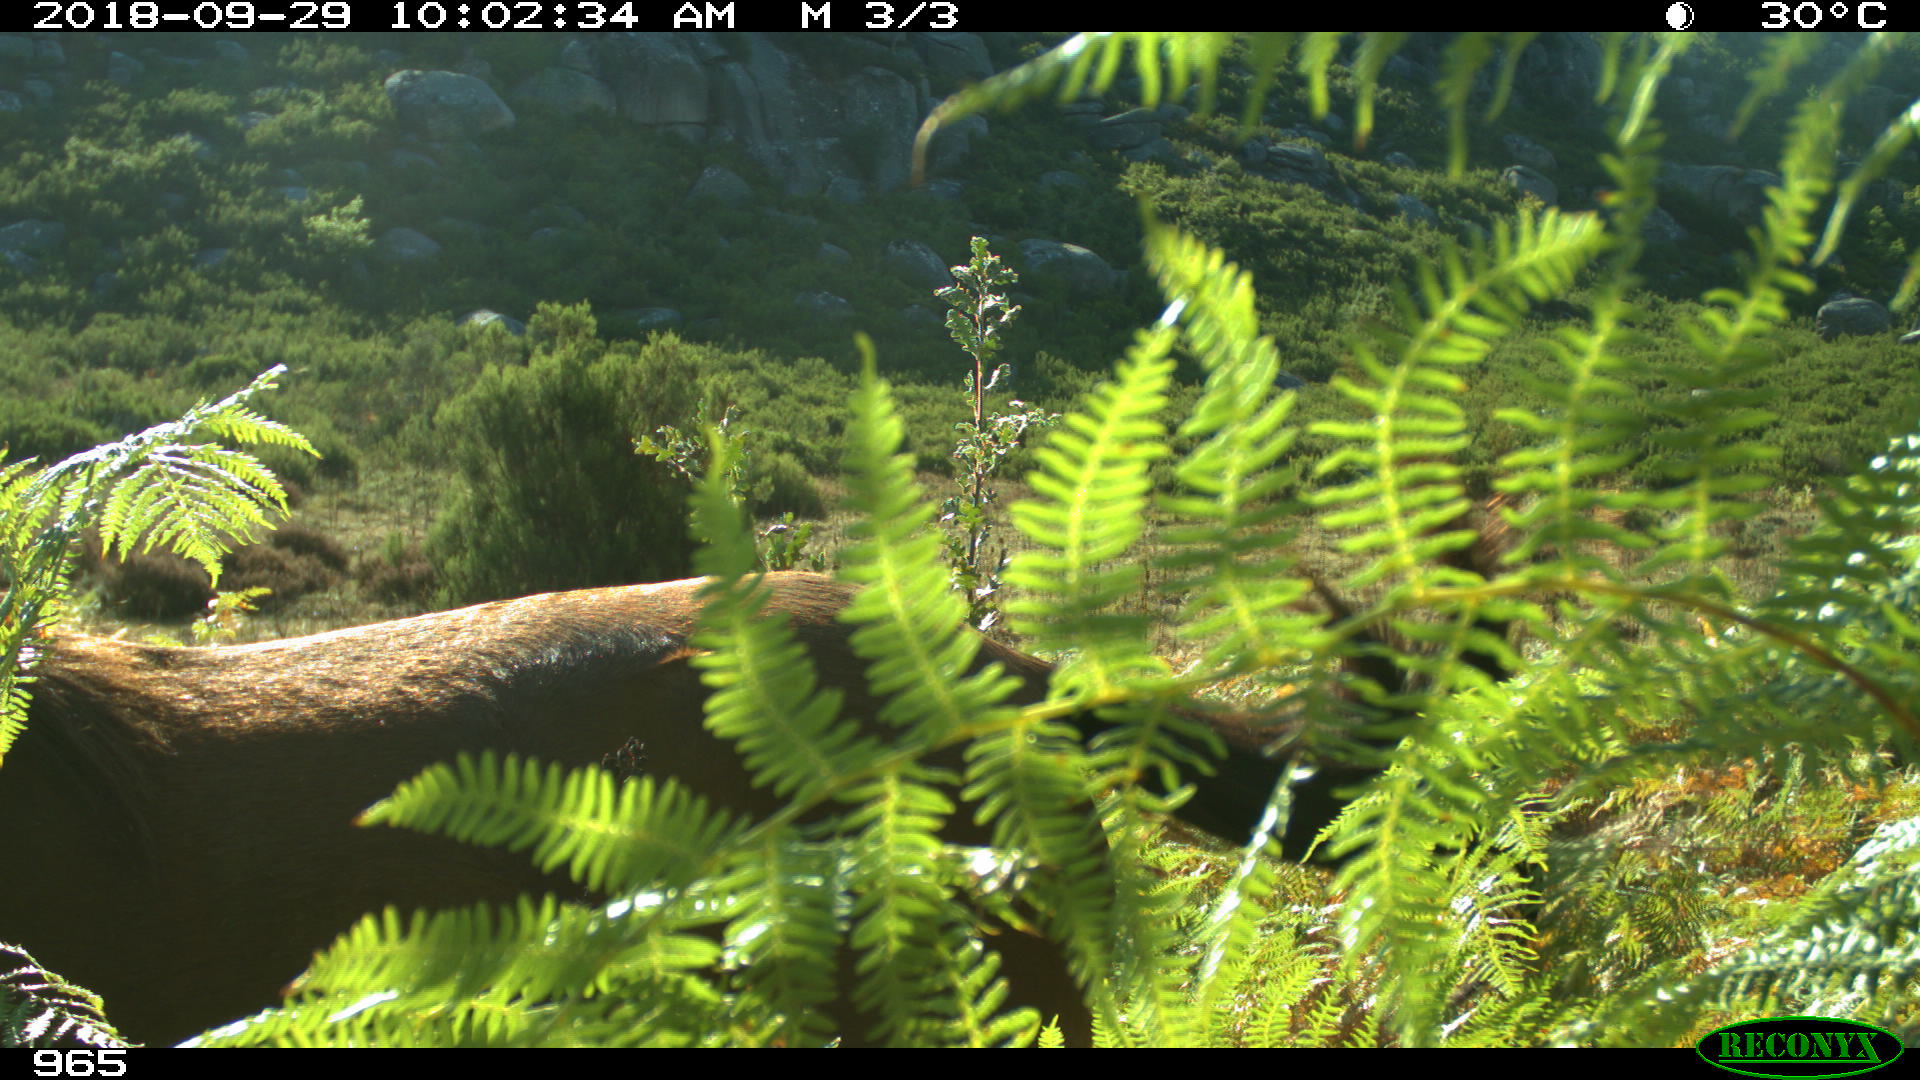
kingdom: Animalia
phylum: Chordata
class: Mammalia
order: Perissodactyla
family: Equidae
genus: Equus
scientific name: Equus caballus
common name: Horse
